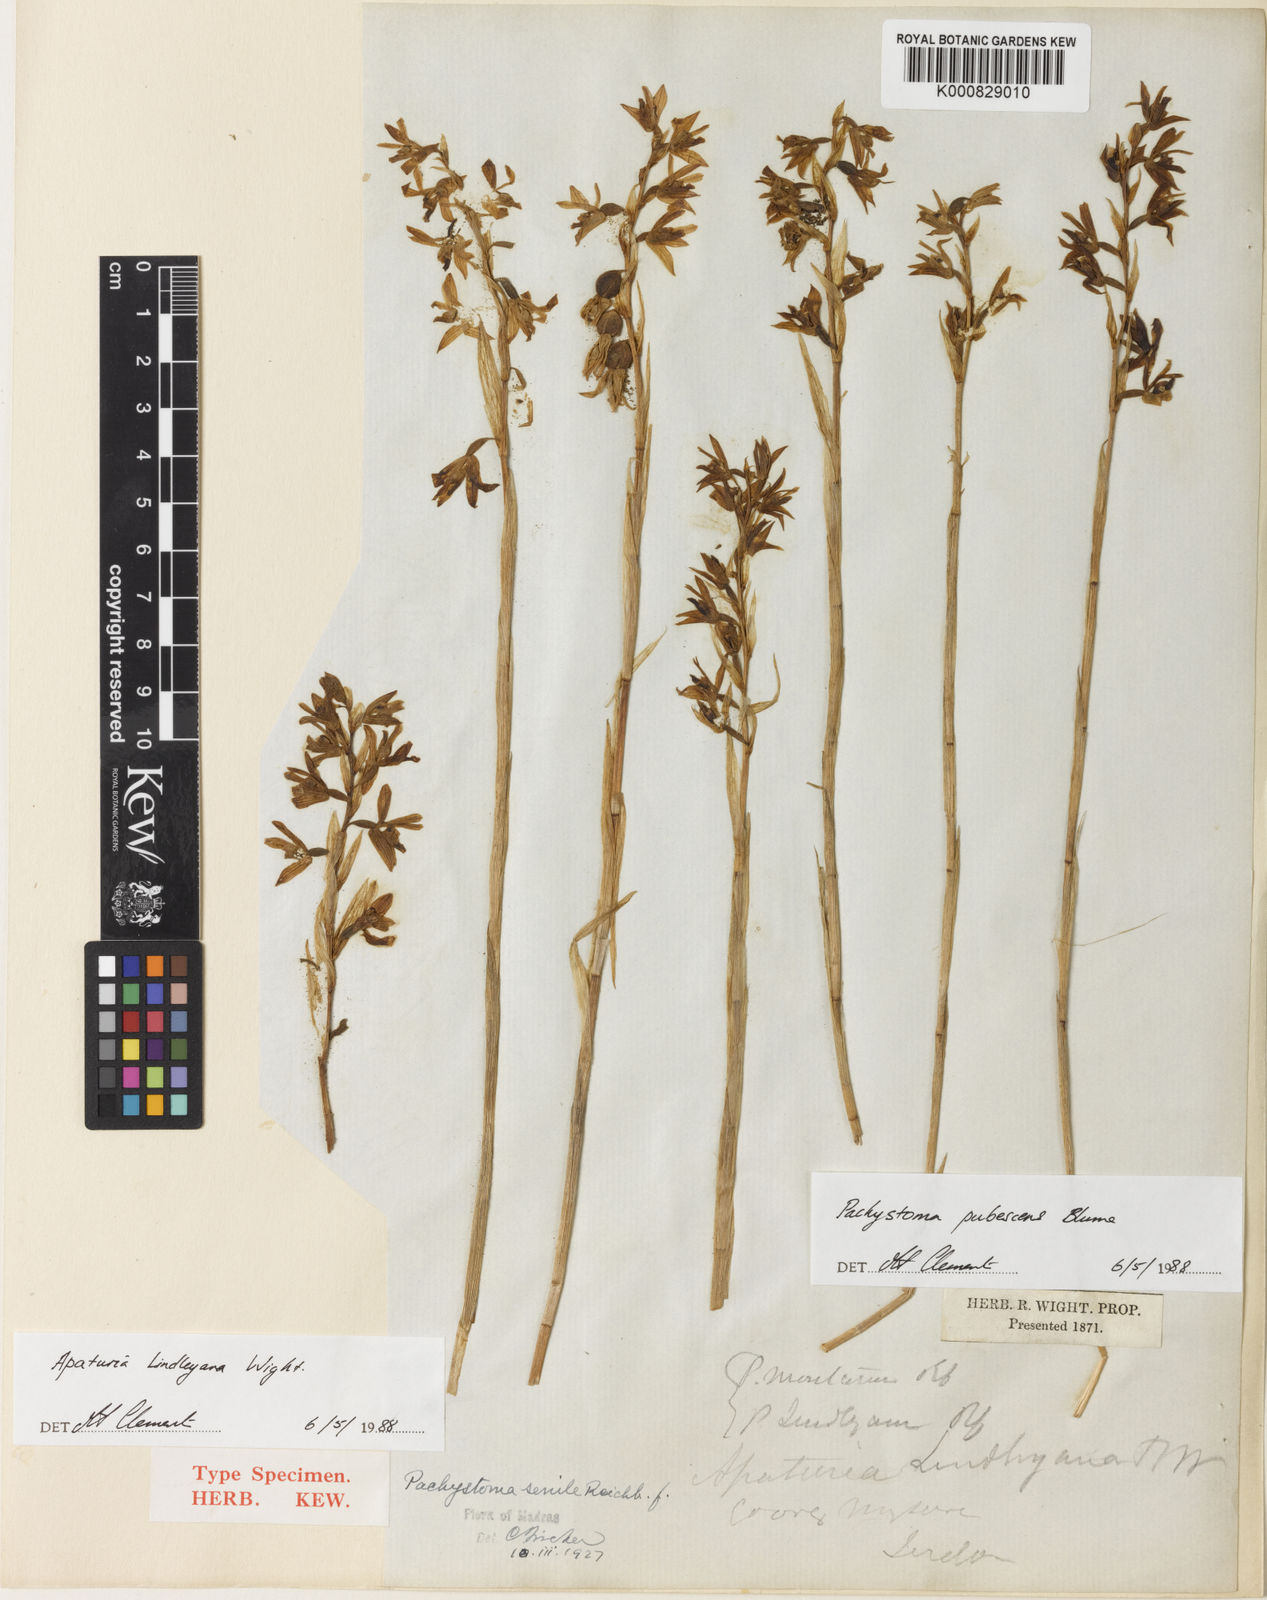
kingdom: Plantae
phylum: Tracheophyta
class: Liliopsida
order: Asparagales
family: Orchidaceae
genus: Pachystoma
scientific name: Pachystoma pubescens
